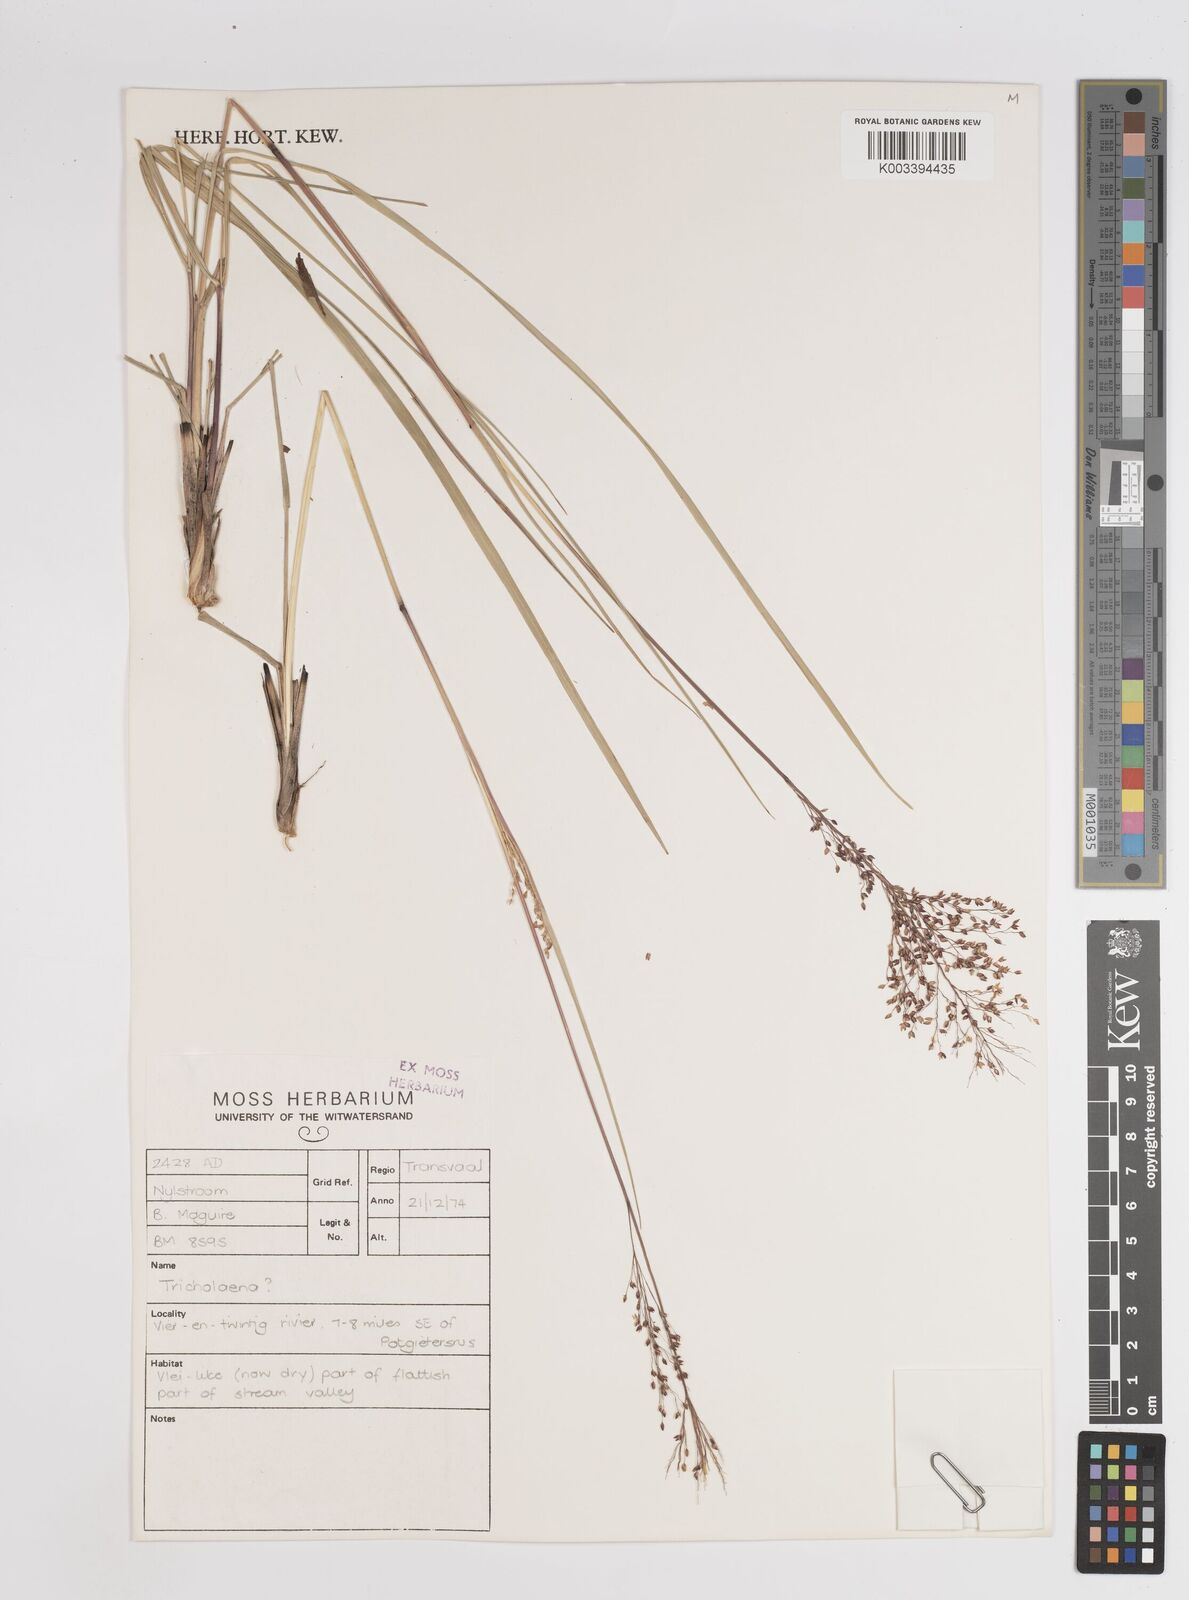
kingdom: Plantae
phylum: Tracheophyta
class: Liliopsida
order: Poales
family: Poaceae
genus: Panicum
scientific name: Panicum
